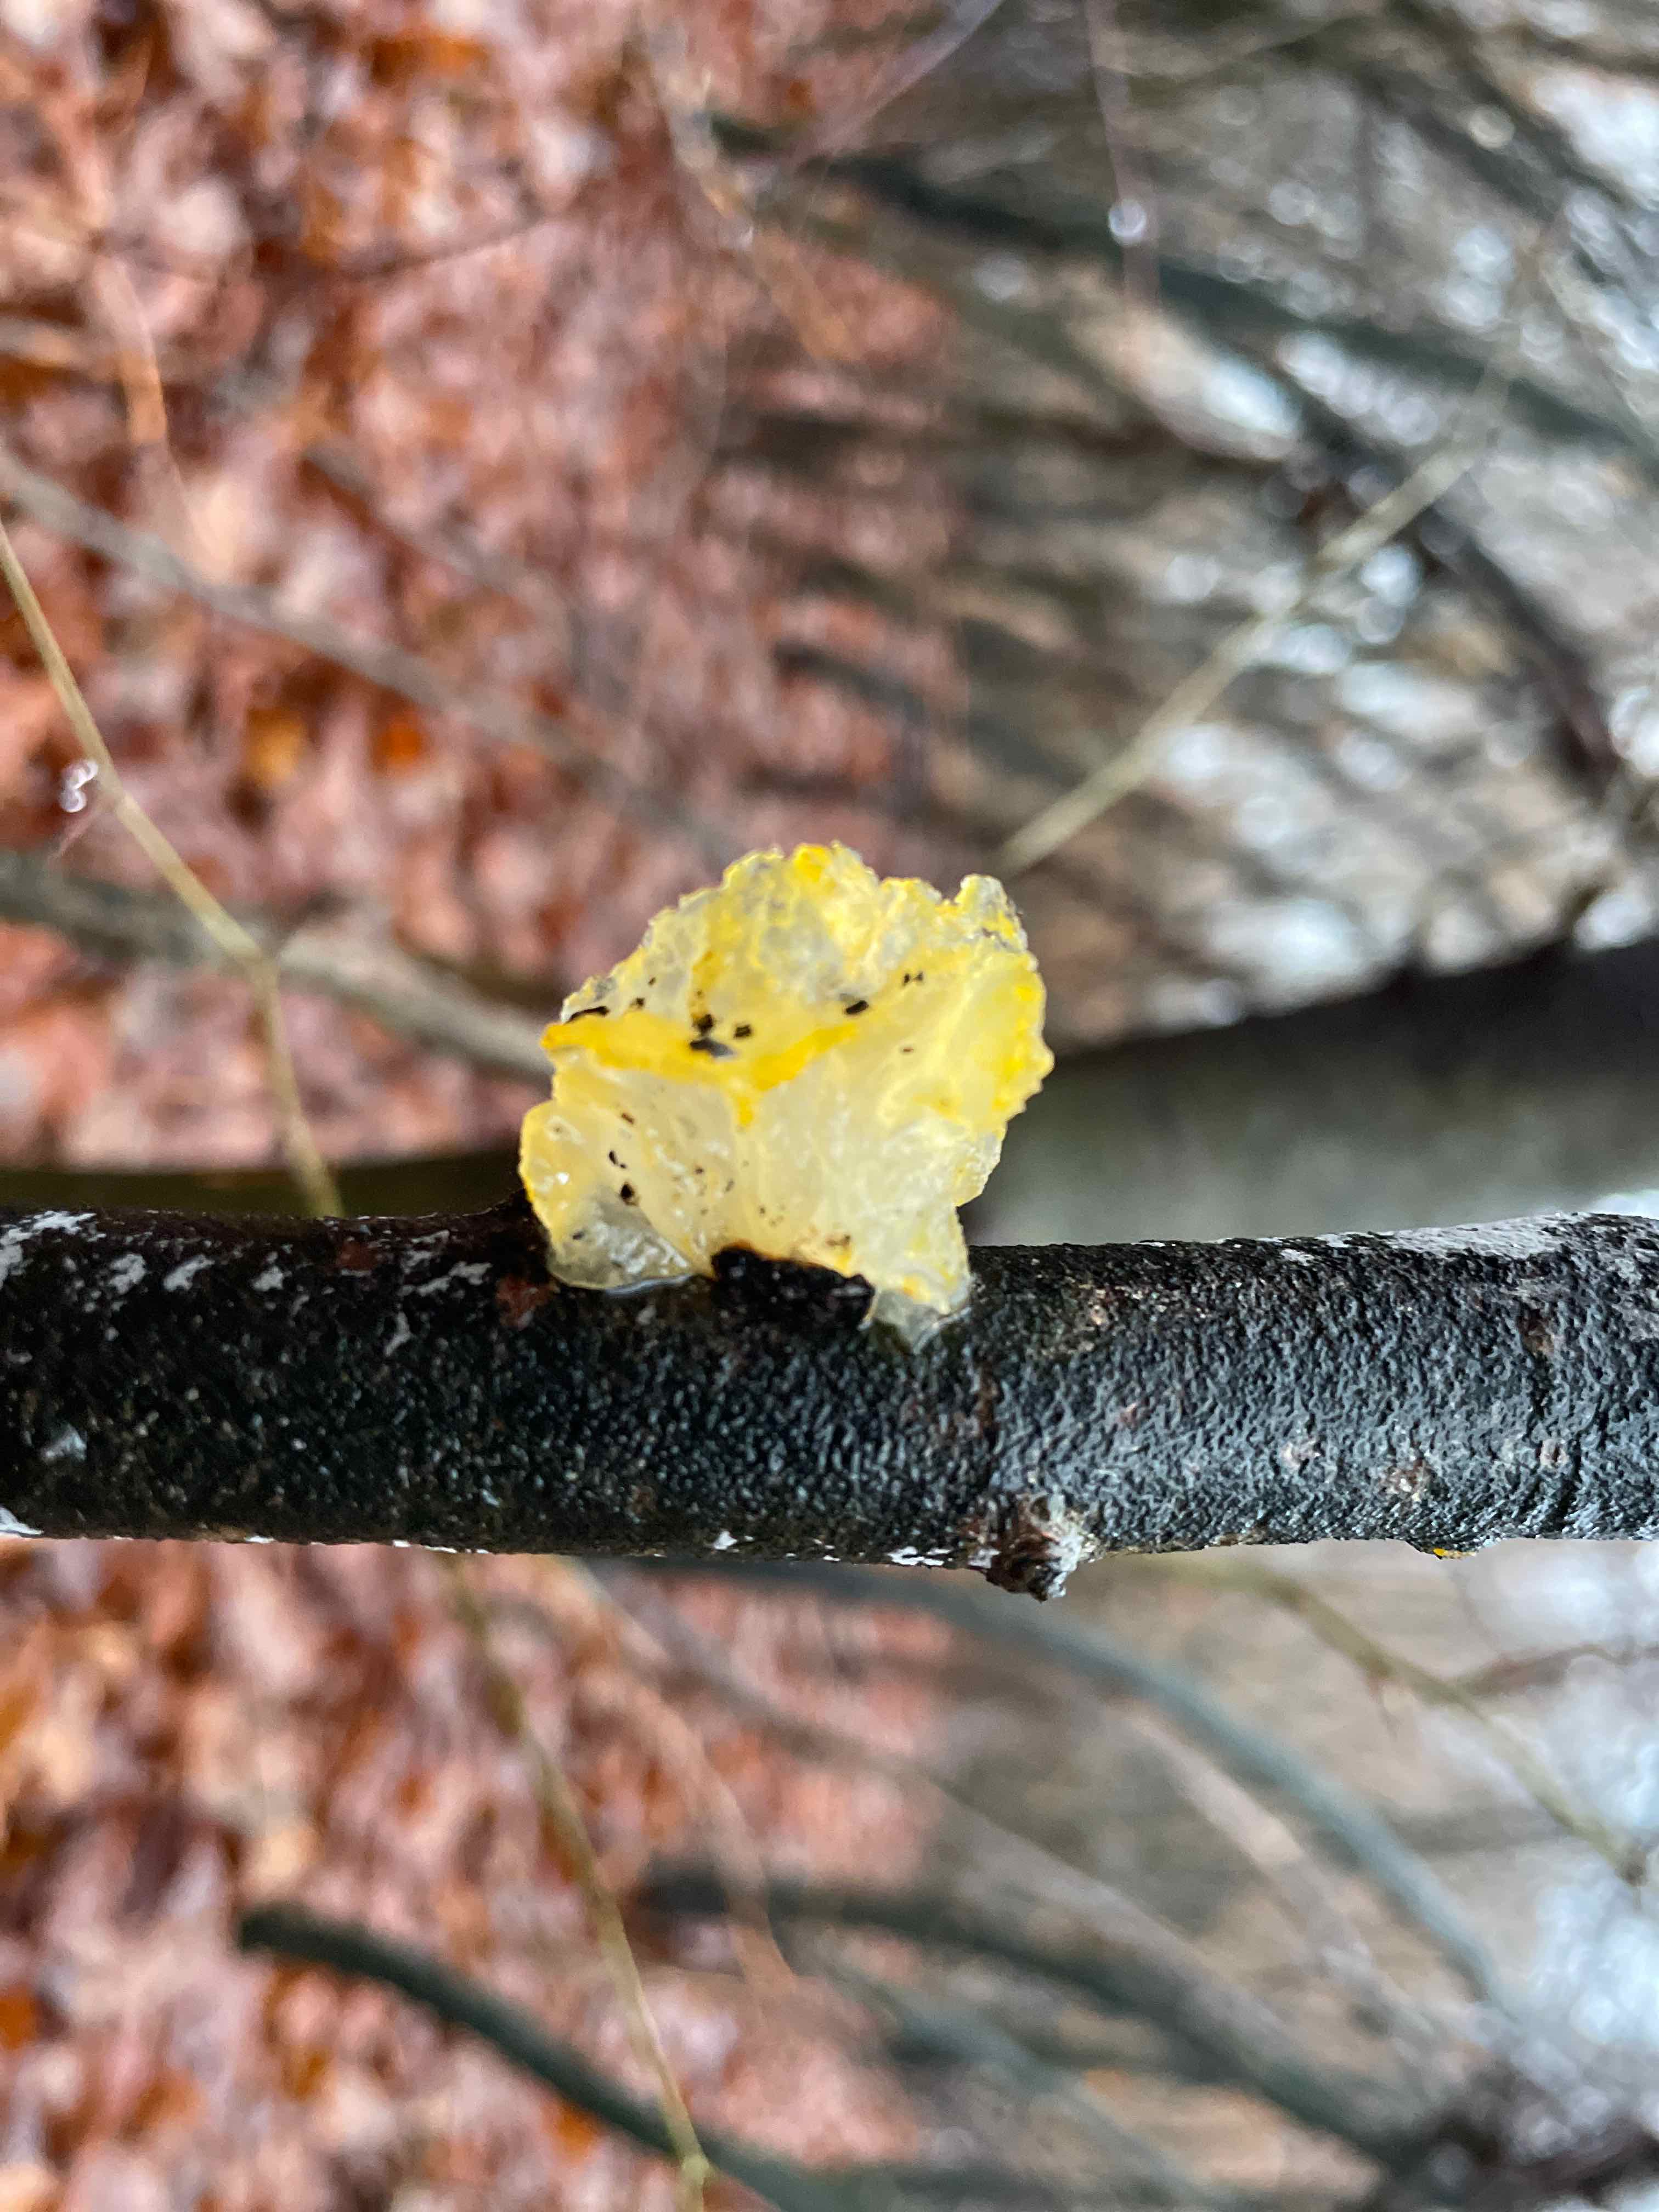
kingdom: Fungi
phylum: Basidiomycota
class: Tremellomycetes
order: Tremellales
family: Tremellaceae
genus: Tremella
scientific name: Tremella mesenterica
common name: gul bævresvamp
